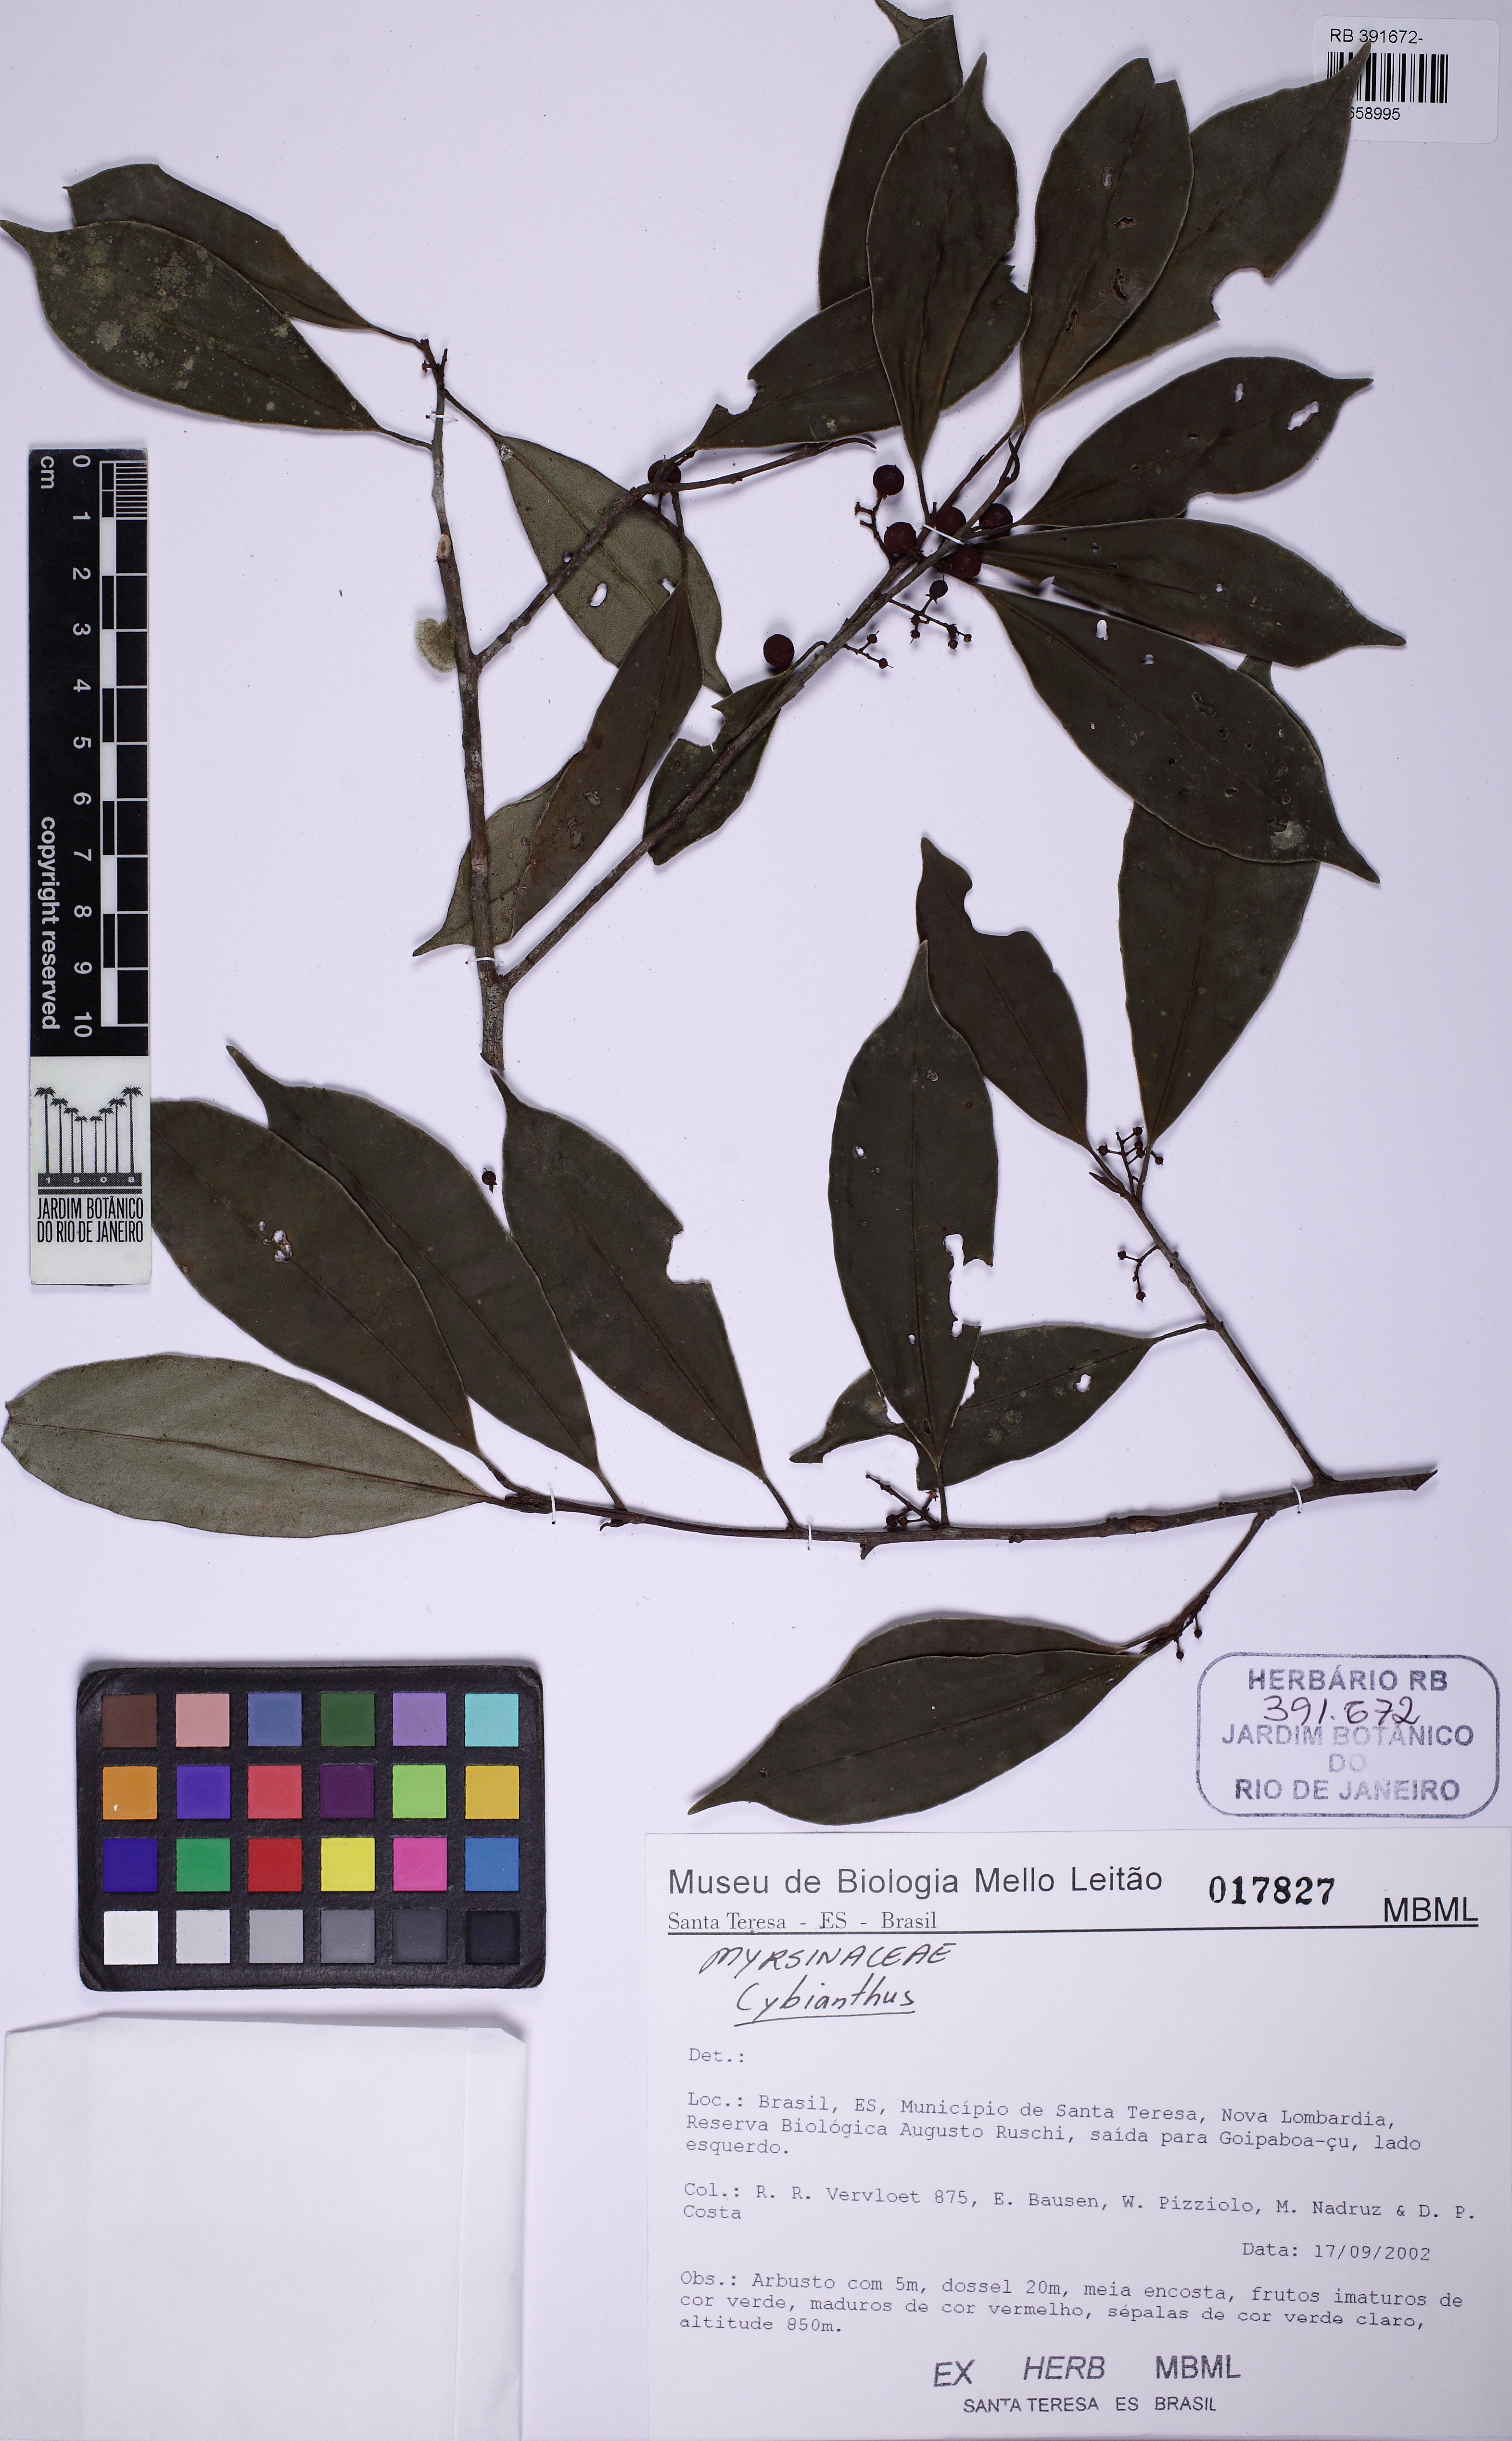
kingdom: Plantae
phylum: Tracheophyta
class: Magnoliopsida
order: Ericales
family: Primulaceae
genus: Cybianthus
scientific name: Cybianthus
